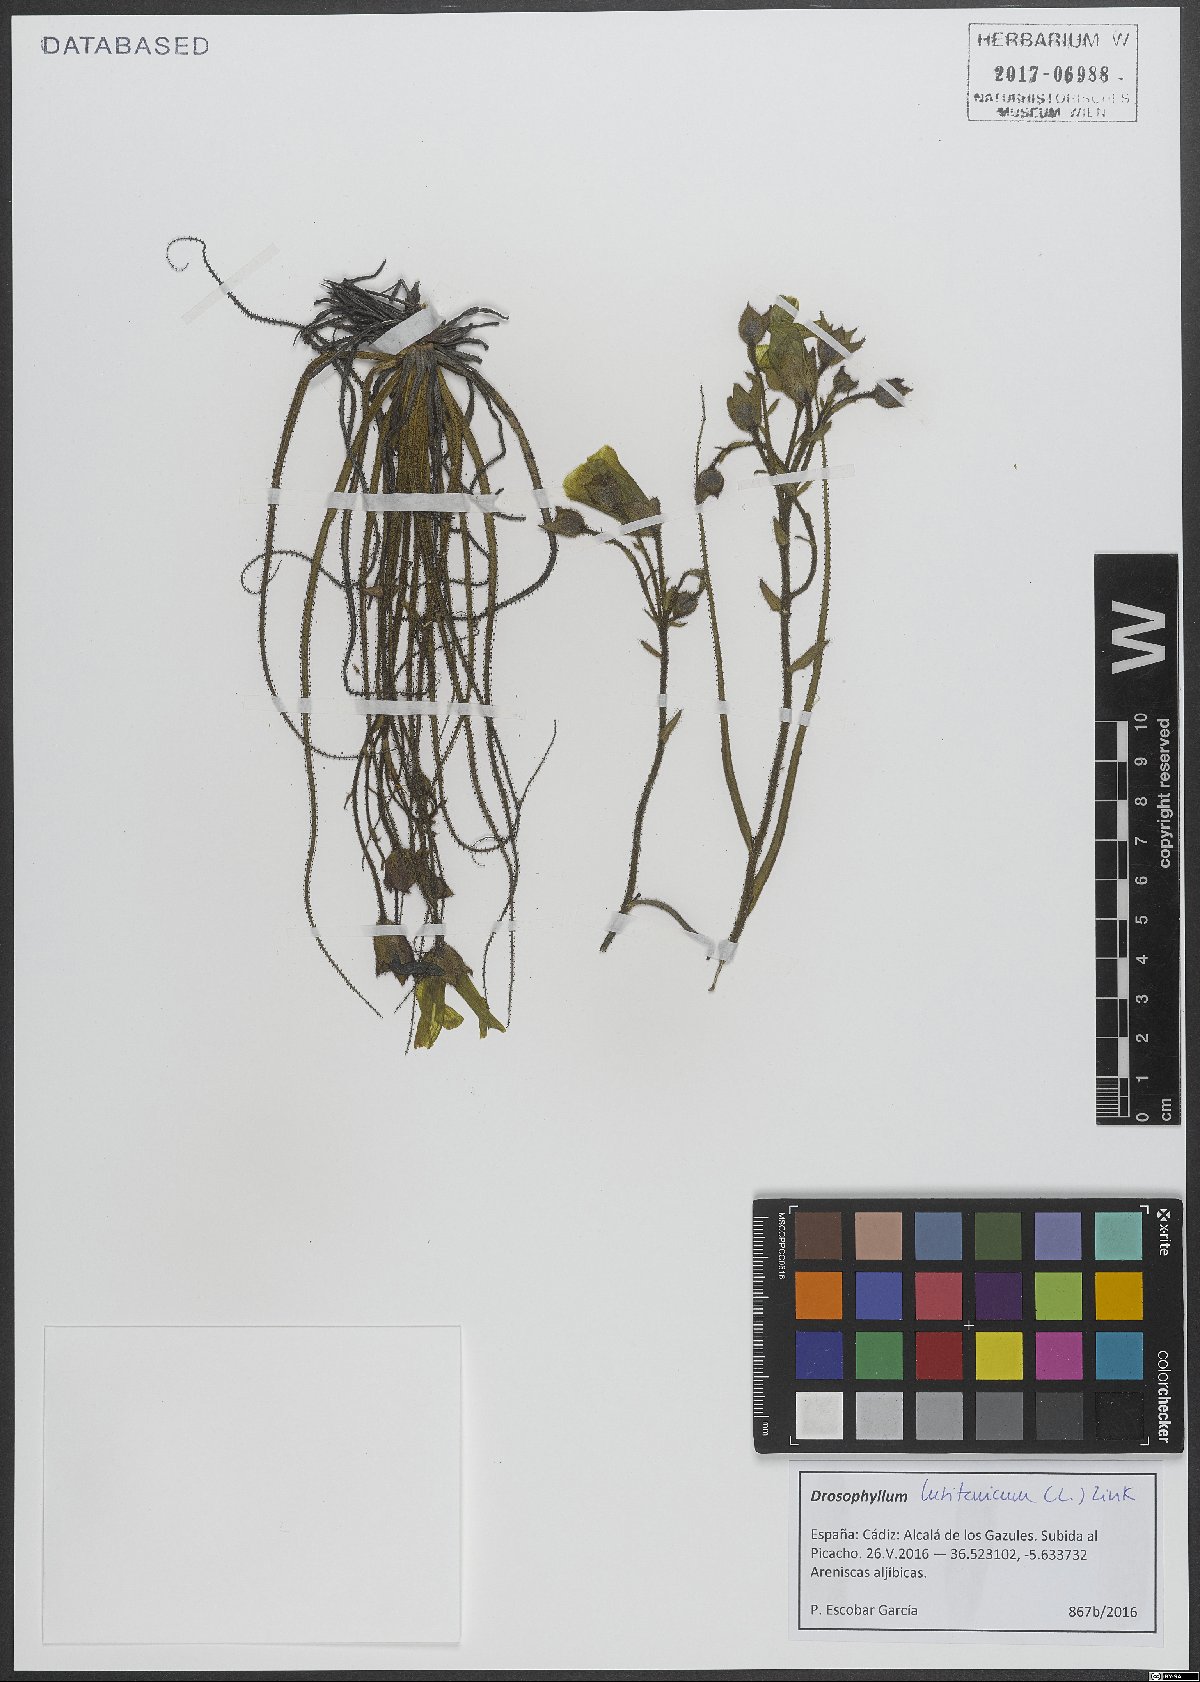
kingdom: Plantae
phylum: Tracheophyta
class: Magnoliopsida
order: Caryophyllales
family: Drosophyllaceae
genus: Drosophyllum
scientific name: Drosophyllum lusitanicum
